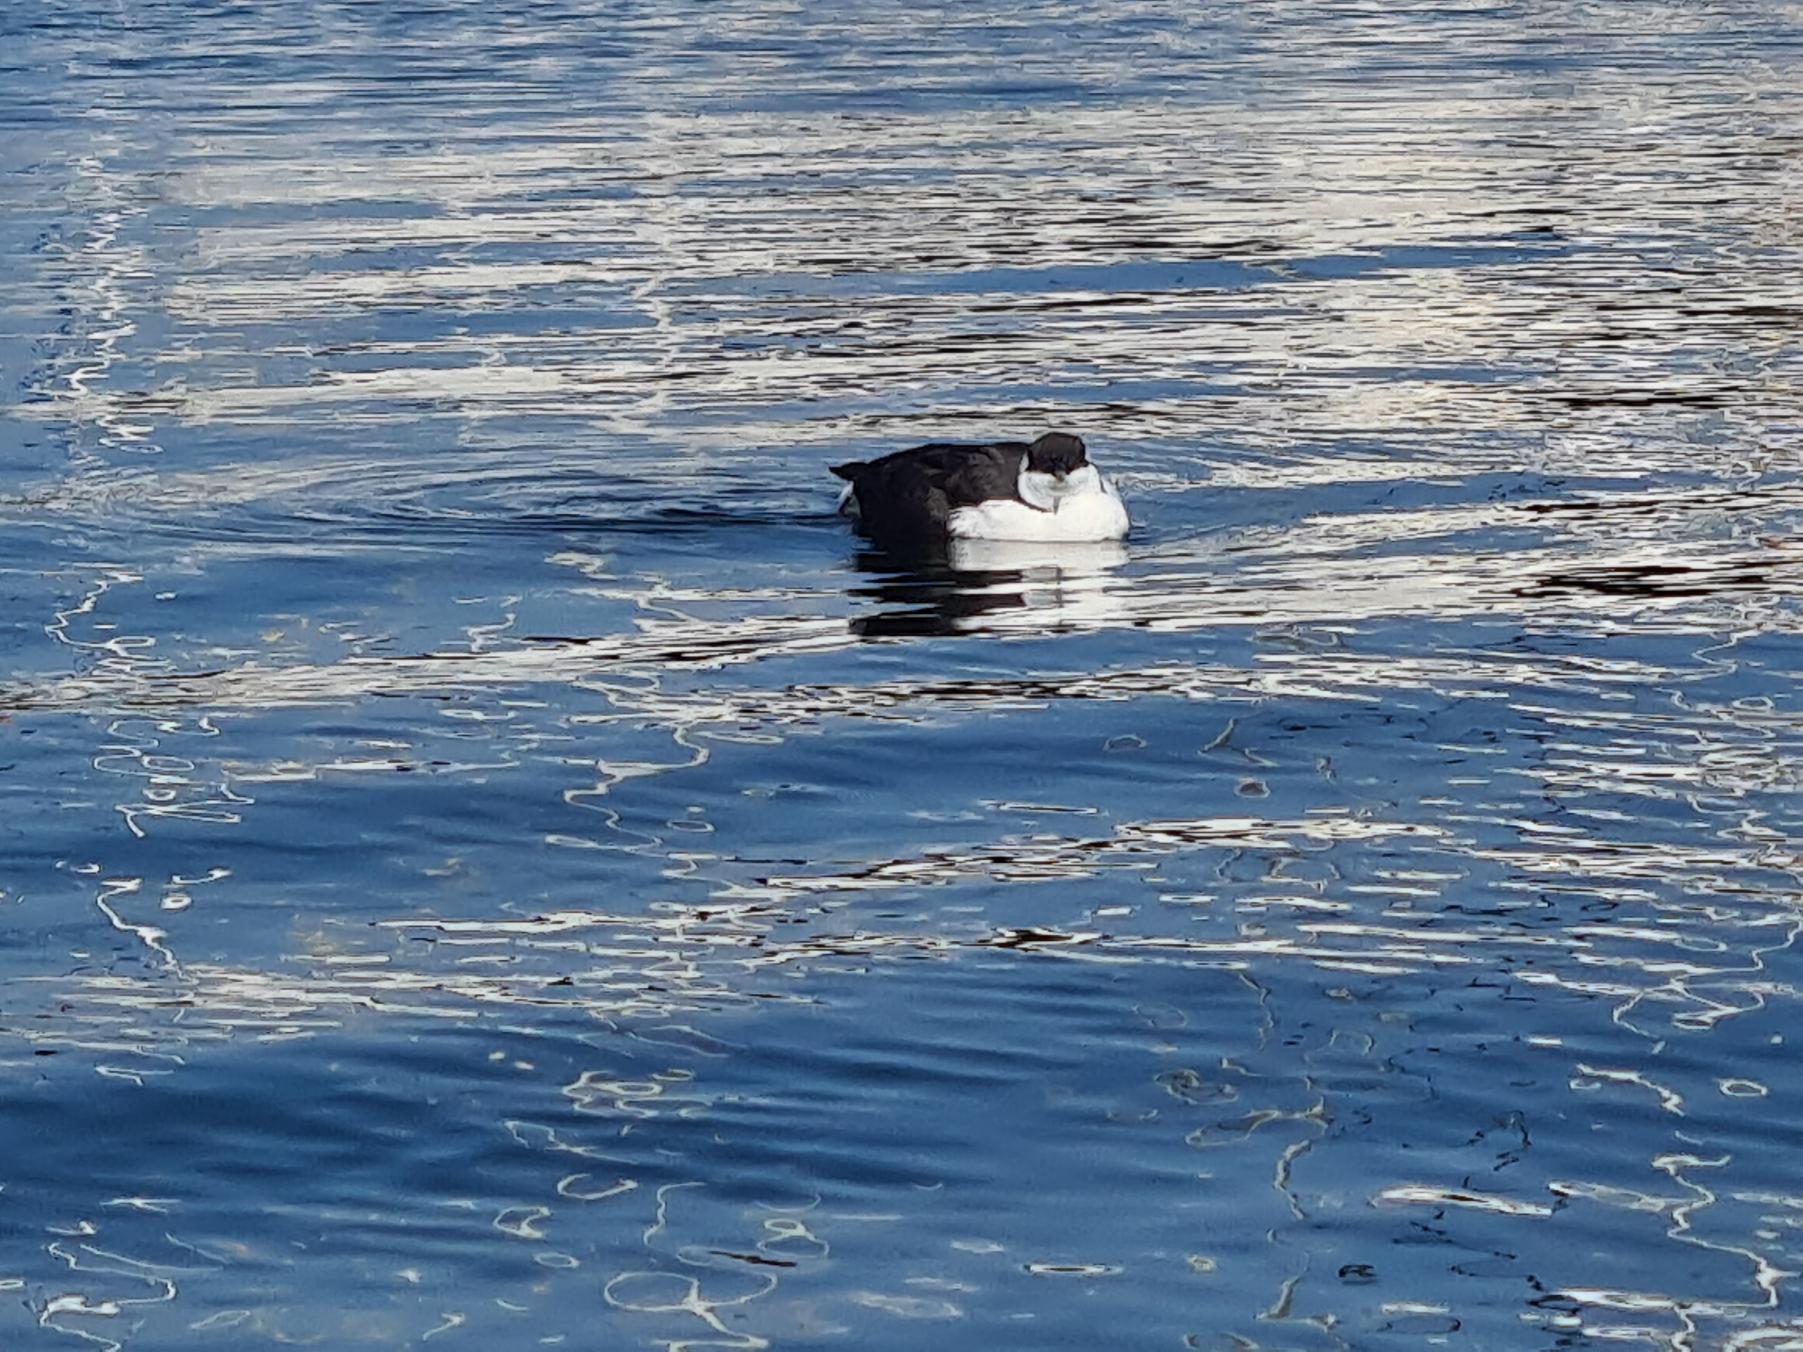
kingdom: Animalia
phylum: Chordata
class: Aves
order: Charadriiformes
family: Alcidae
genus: Uria
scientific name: Uria aalge
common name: Lomvie
